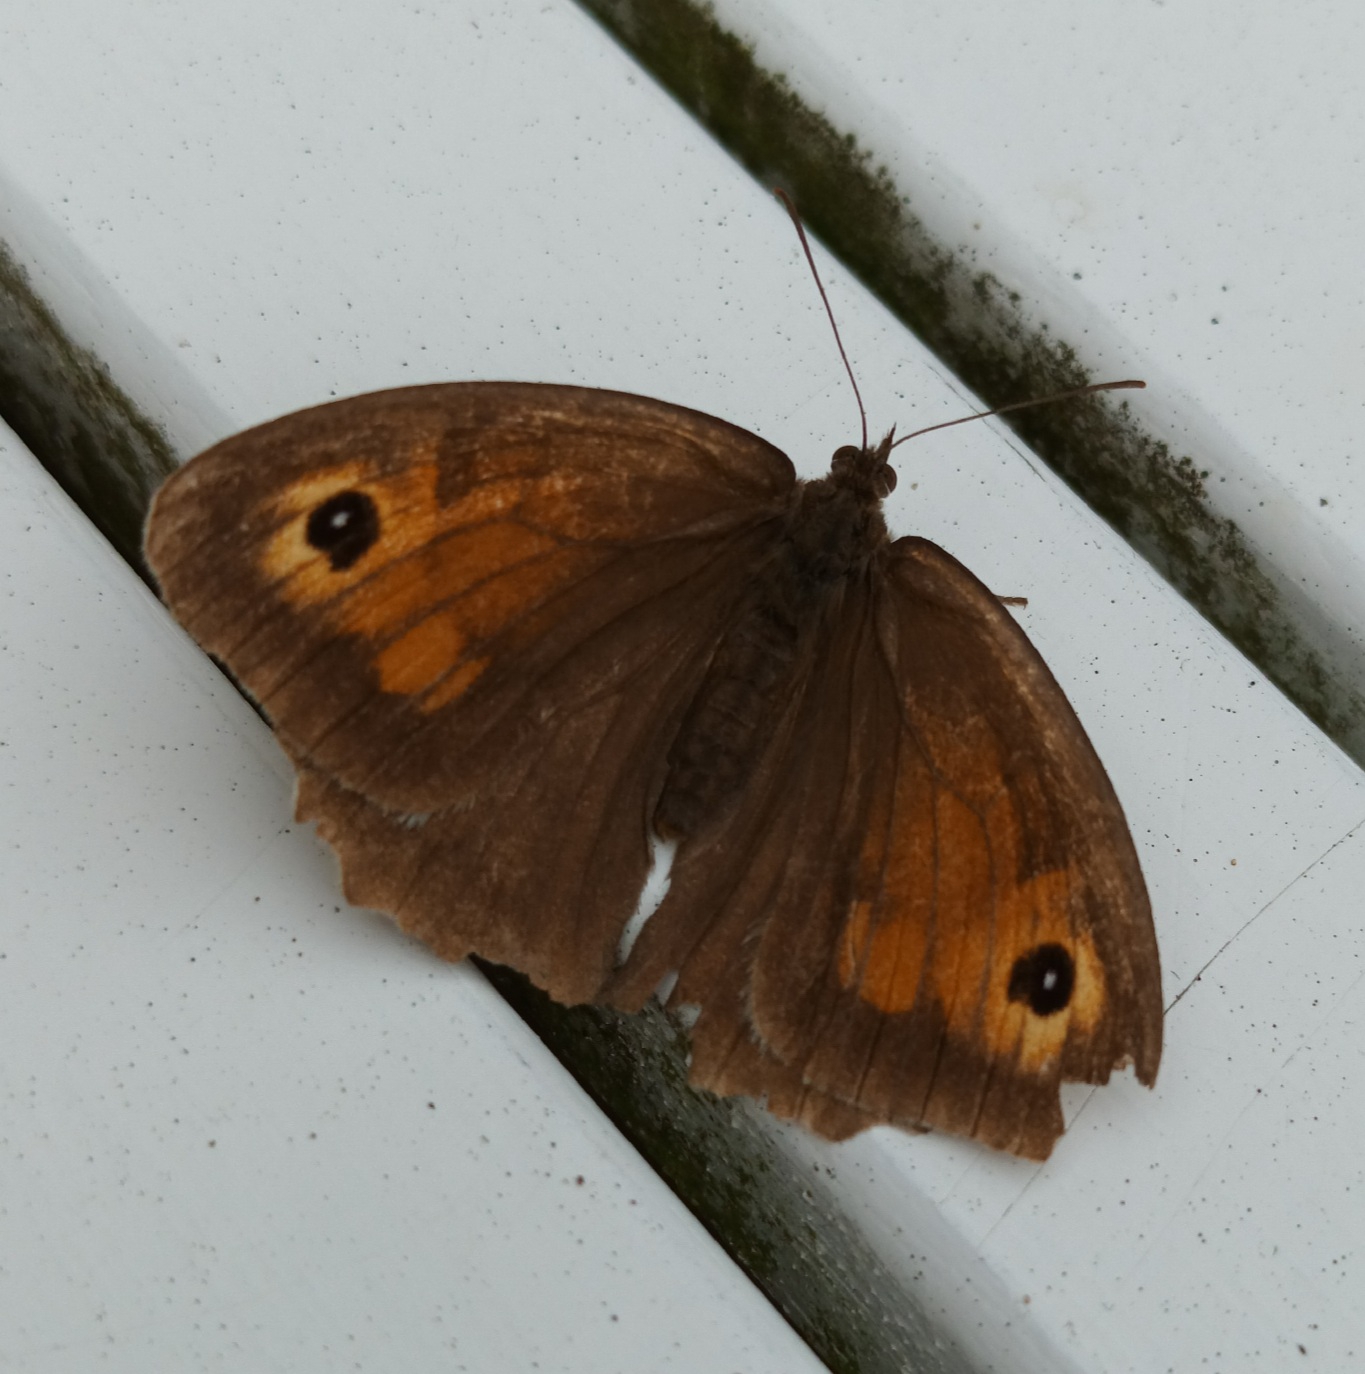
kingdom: Animalia
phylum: Arthropoda
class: Insecta
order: Lepidoptera
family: Nymphalidae
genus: Maniola
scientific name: Maniola jurtina
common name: Græsrandøje
